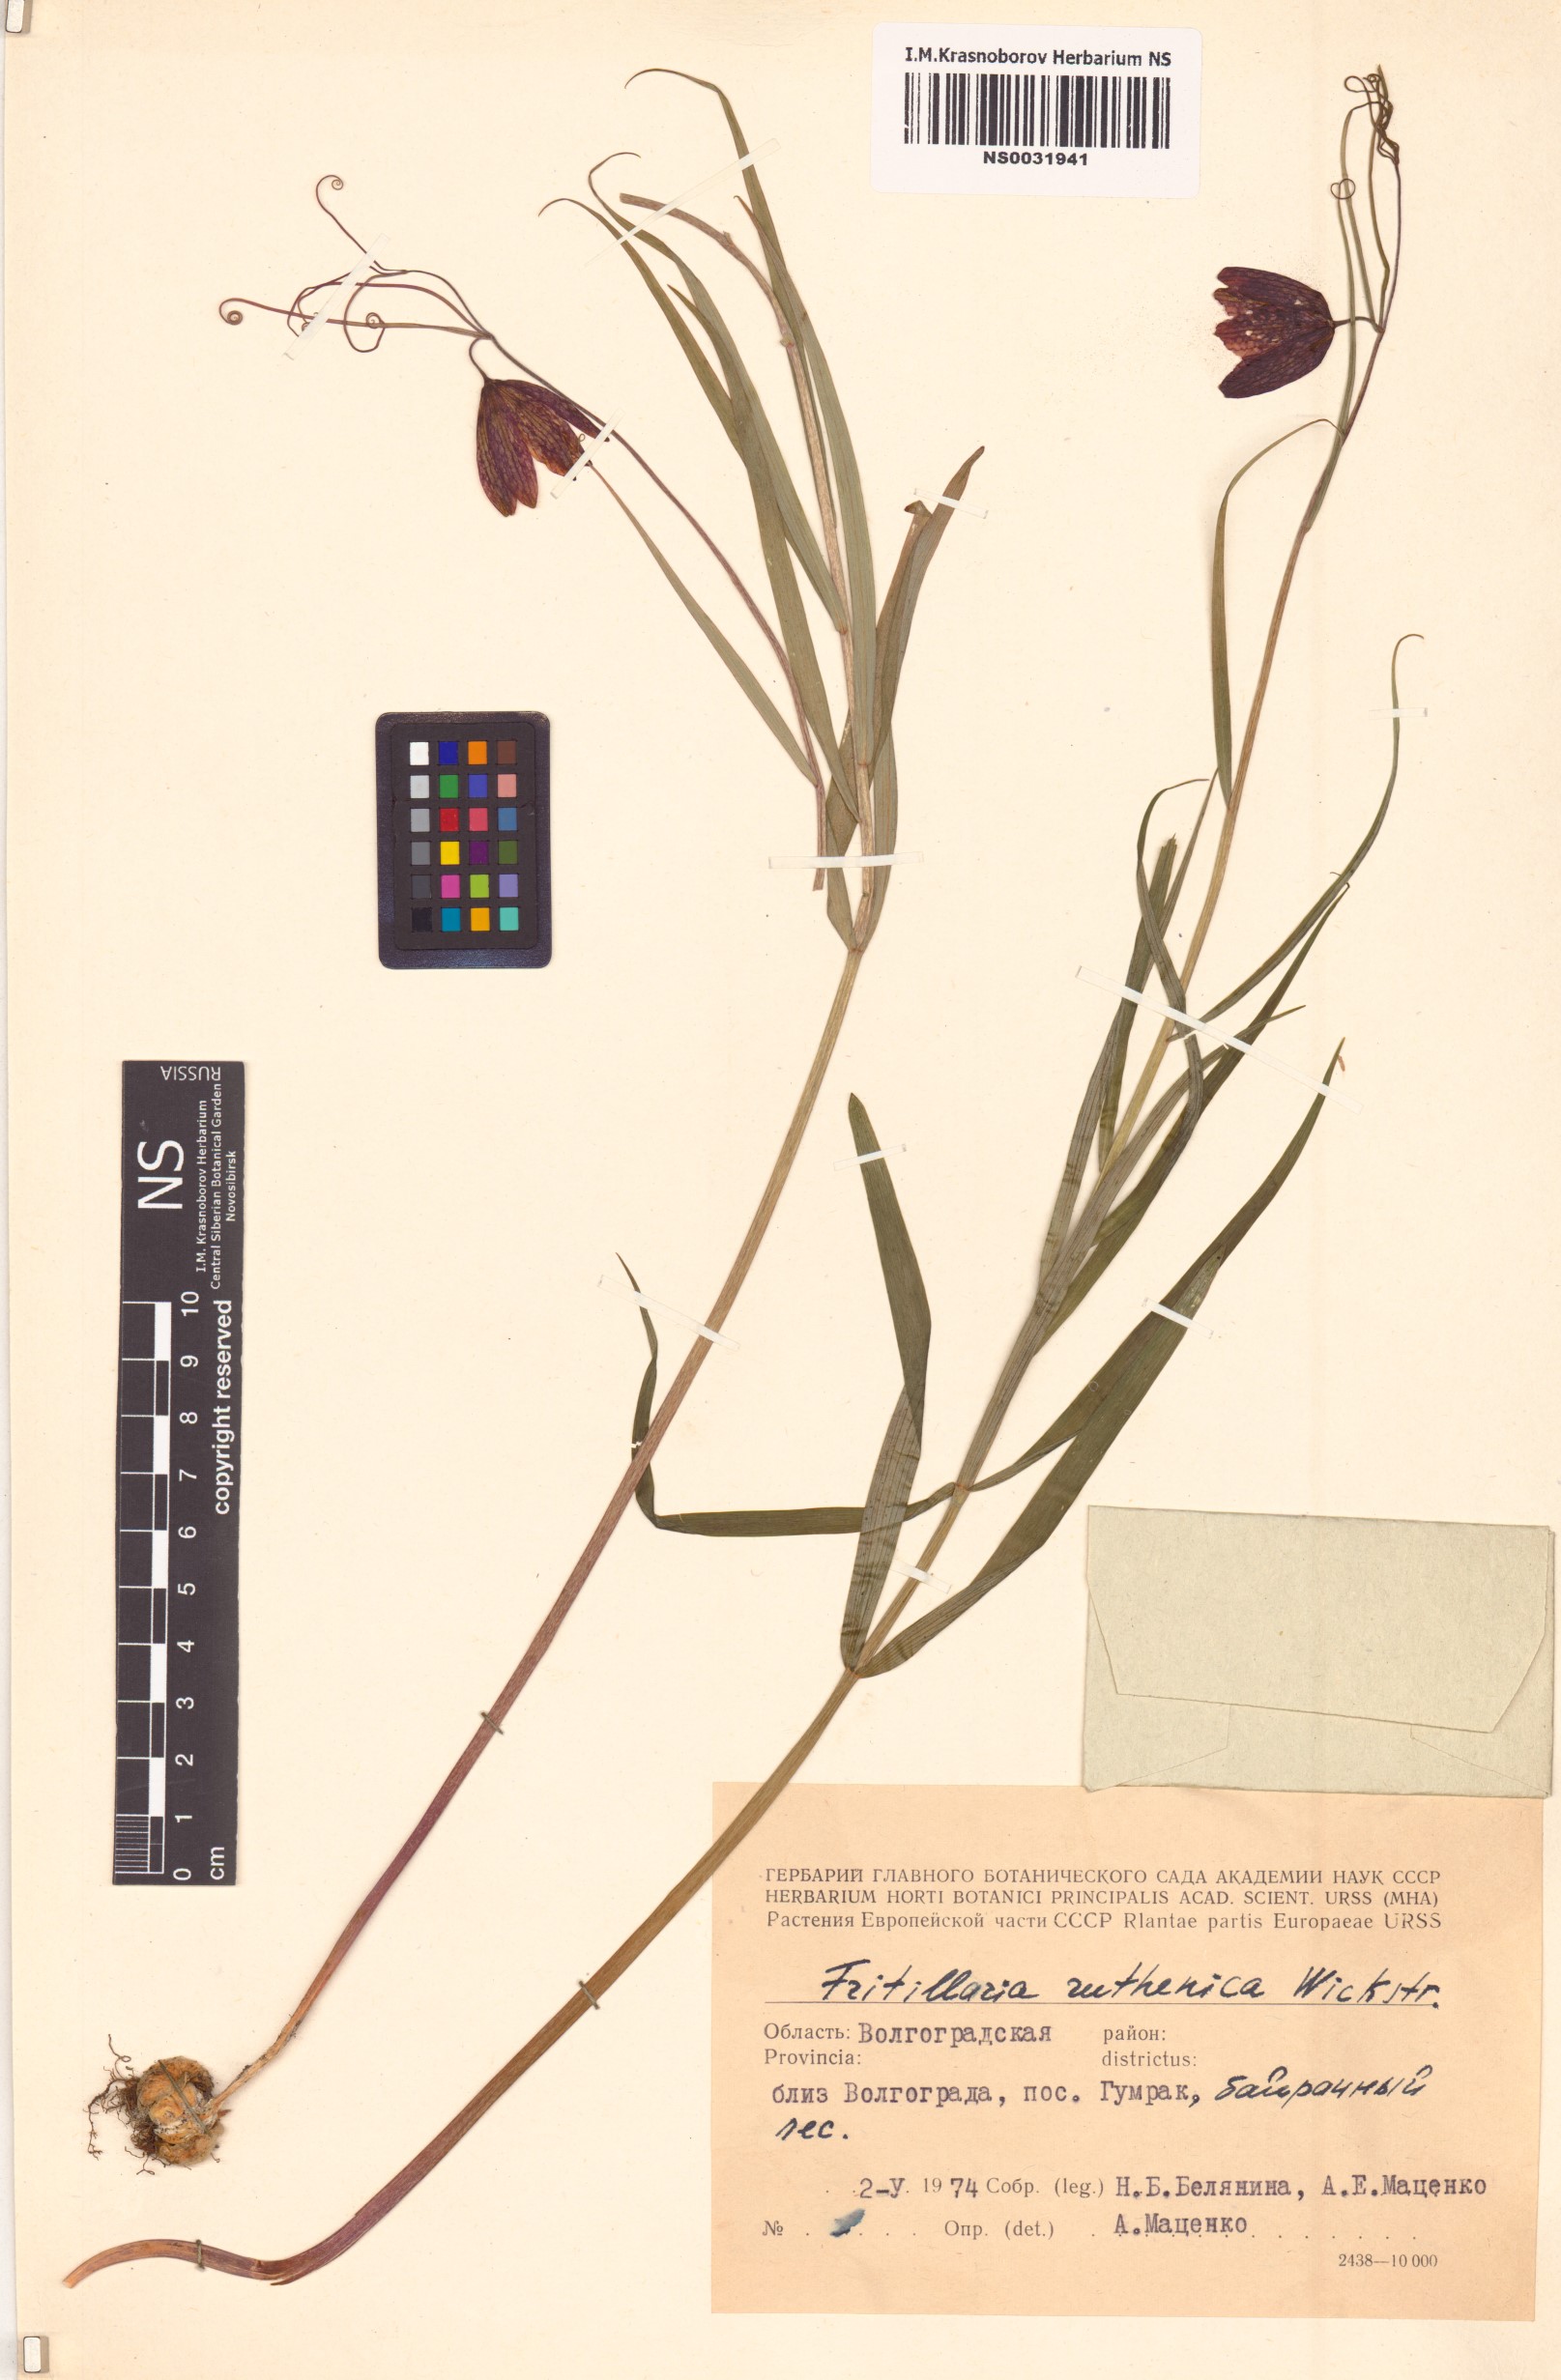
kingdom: Plantae
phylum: Tracheophyta
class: Liliopsida
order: Liliales
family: Liliaceae
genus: Fritillaria
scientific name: Fritillaria ruthenica
